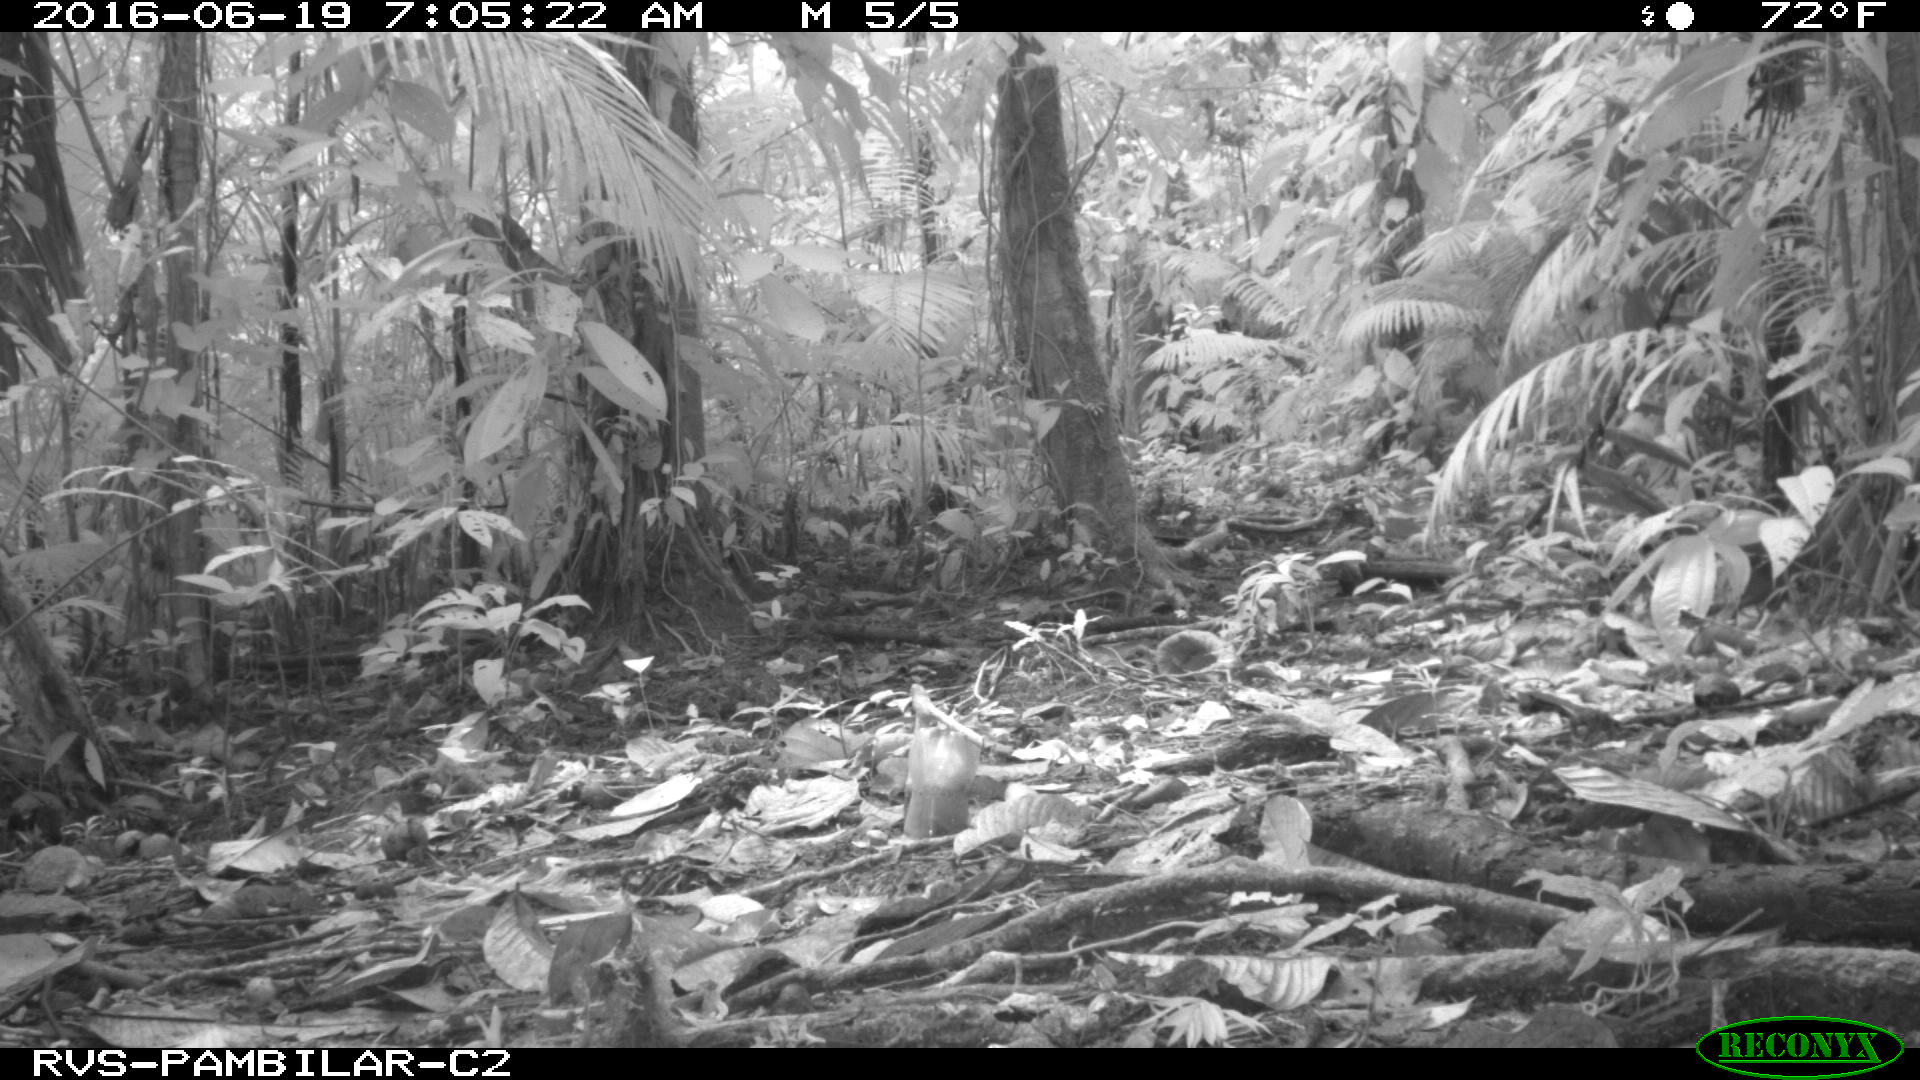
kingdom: Animalia
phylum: Chordata
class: Mammalia
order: Rodentia
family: Dasyproctidae
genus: Dasyprocta
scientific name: Dasyprocta punctata
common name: Central american agouti
